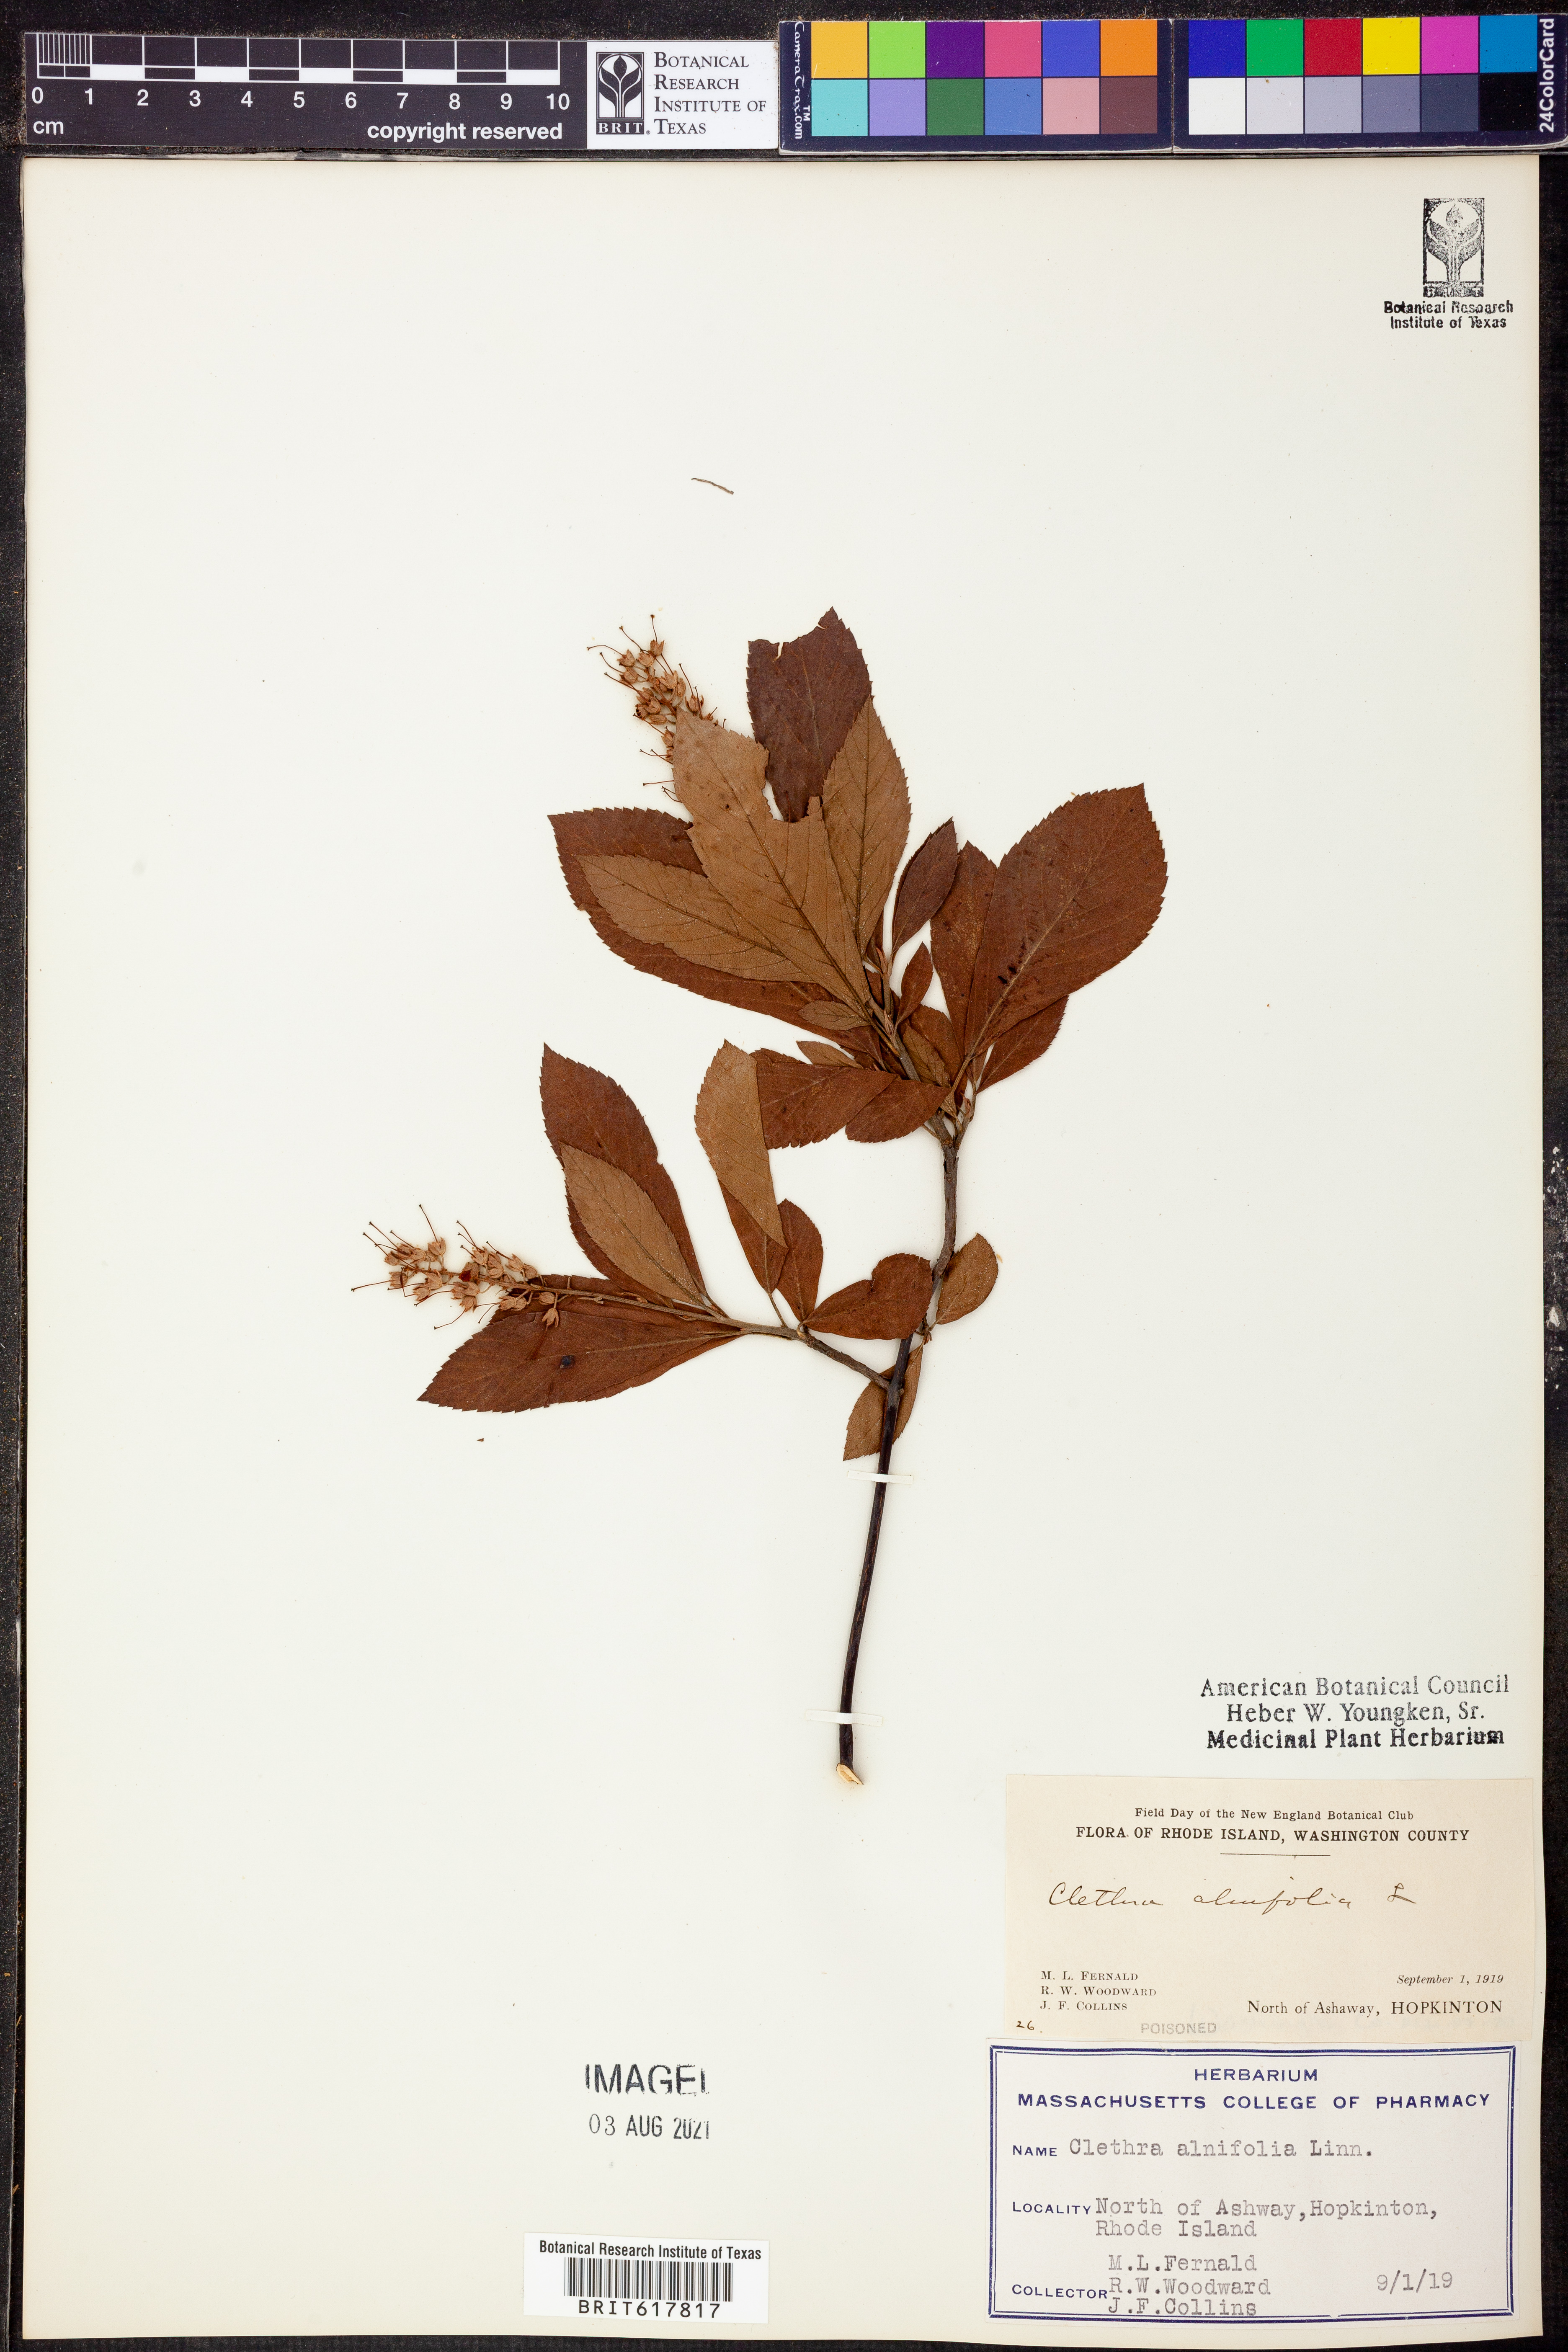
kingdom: Plantae
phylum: Tracheophyta
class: Magnoliopsida
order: Ericales
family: Clethraceae
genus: Clethra
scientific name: Clethra alnifolia
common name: Sweet pepperbush
